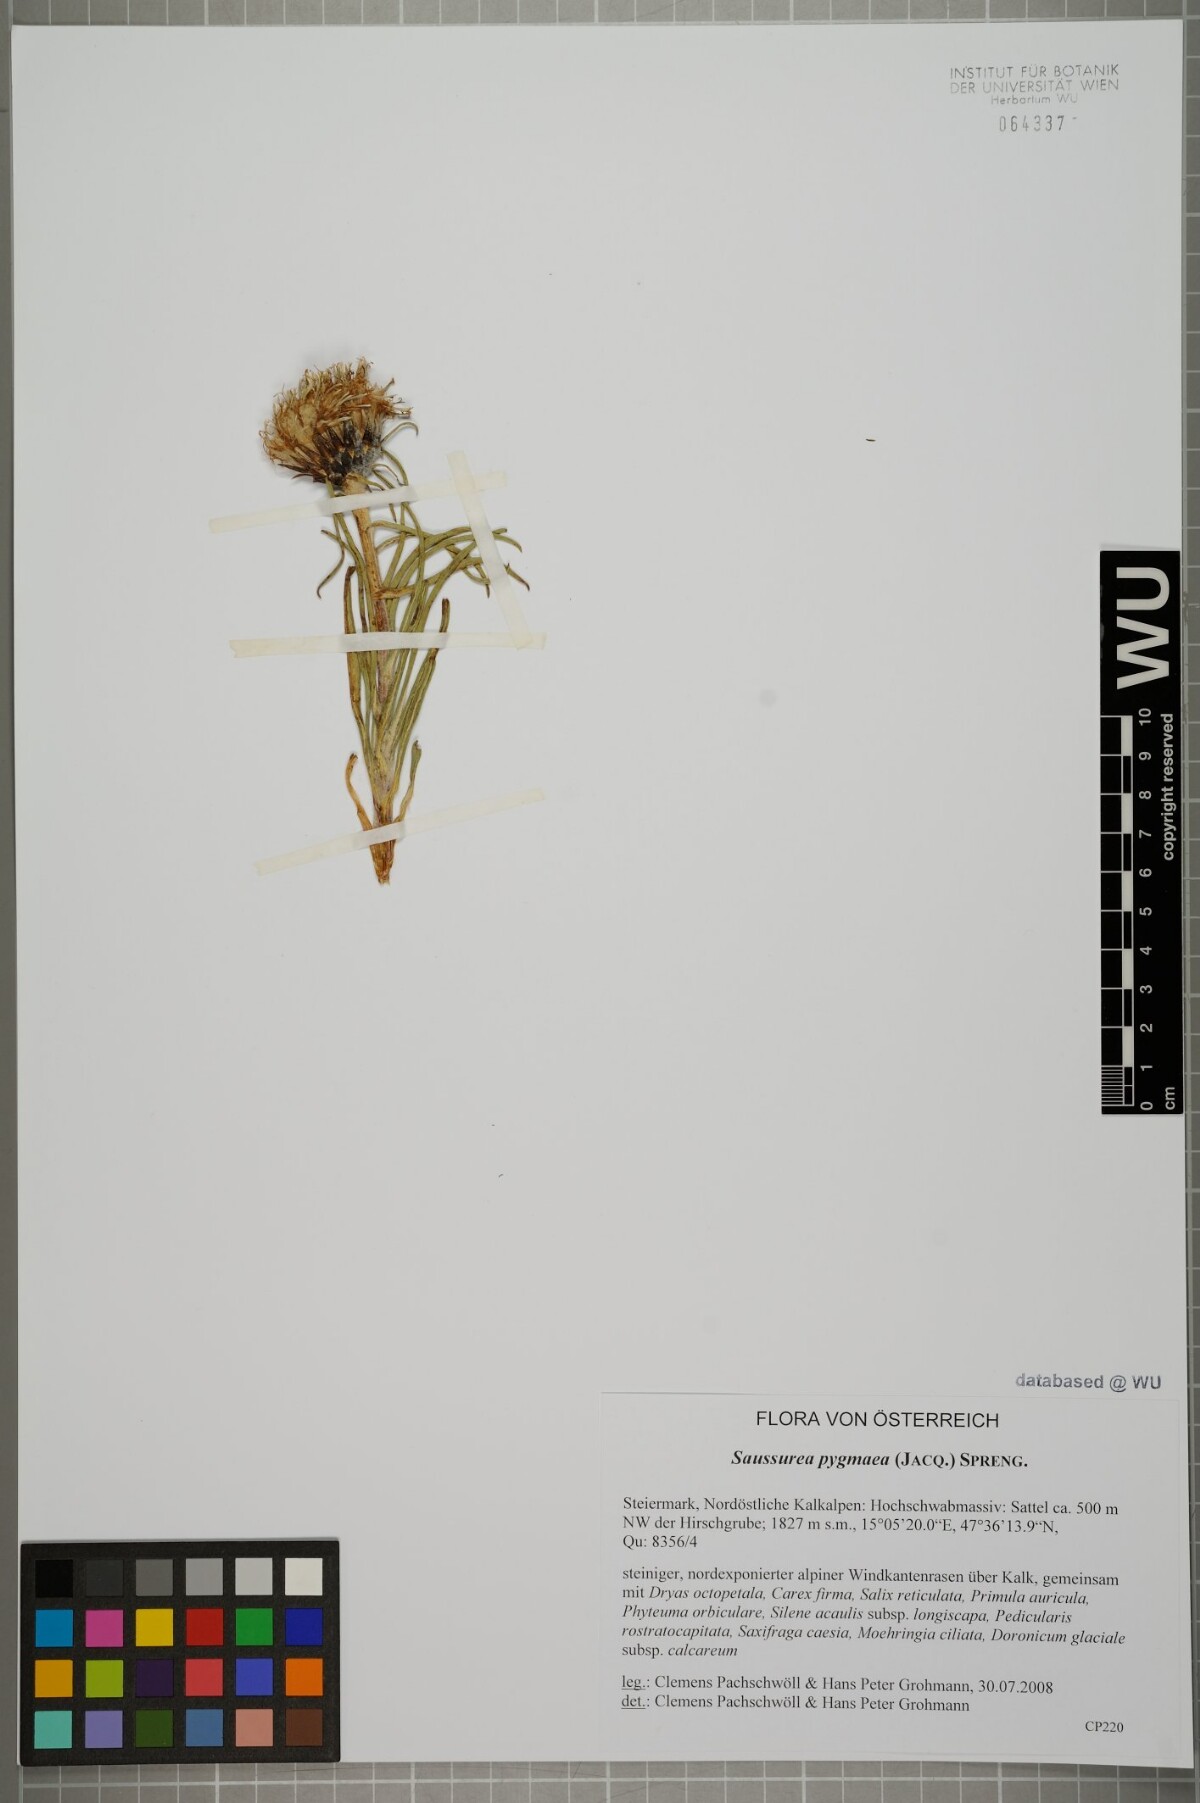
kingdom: Plantae
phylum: Tracheophyta
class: Magnoliopsida
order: Asterales
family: Asteraceae
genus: Saussurea
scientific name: Saussurea pygmaea
